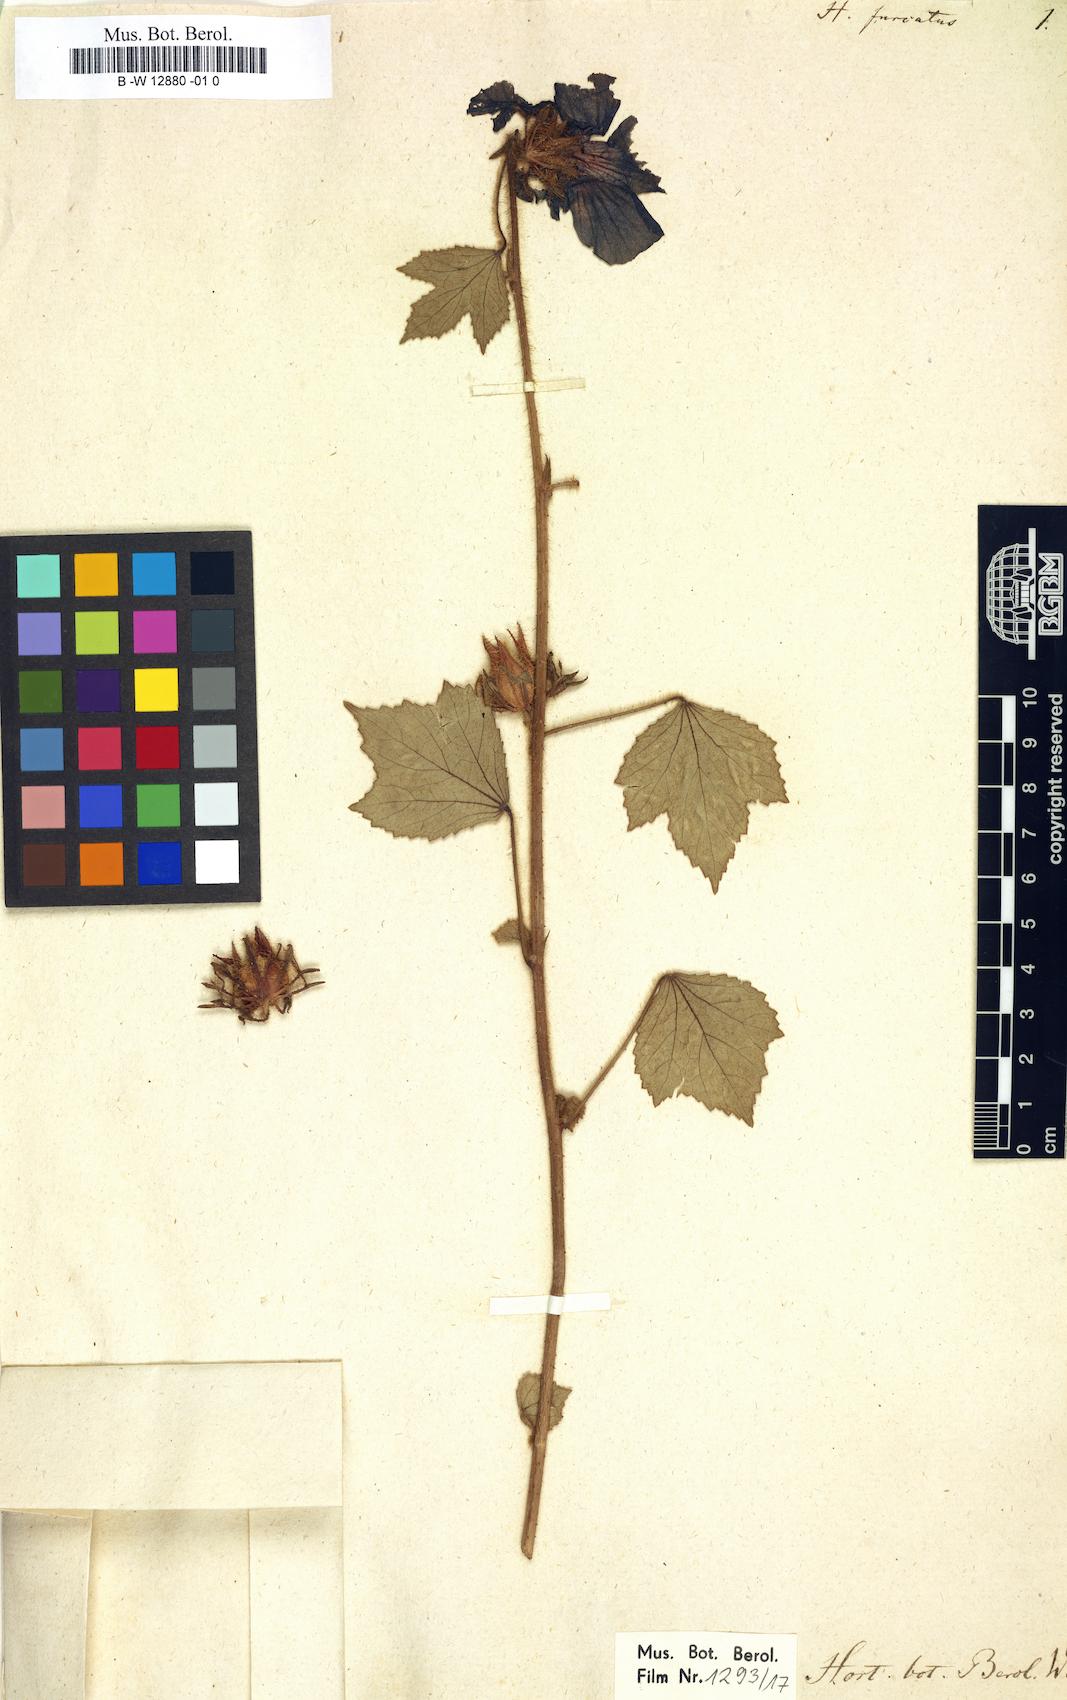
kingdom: Plantae
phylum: Tracheophyta
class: Magnoliopsida
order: Malvales
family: Malvaceae
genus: Hibiscus
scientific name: Hibiscus
